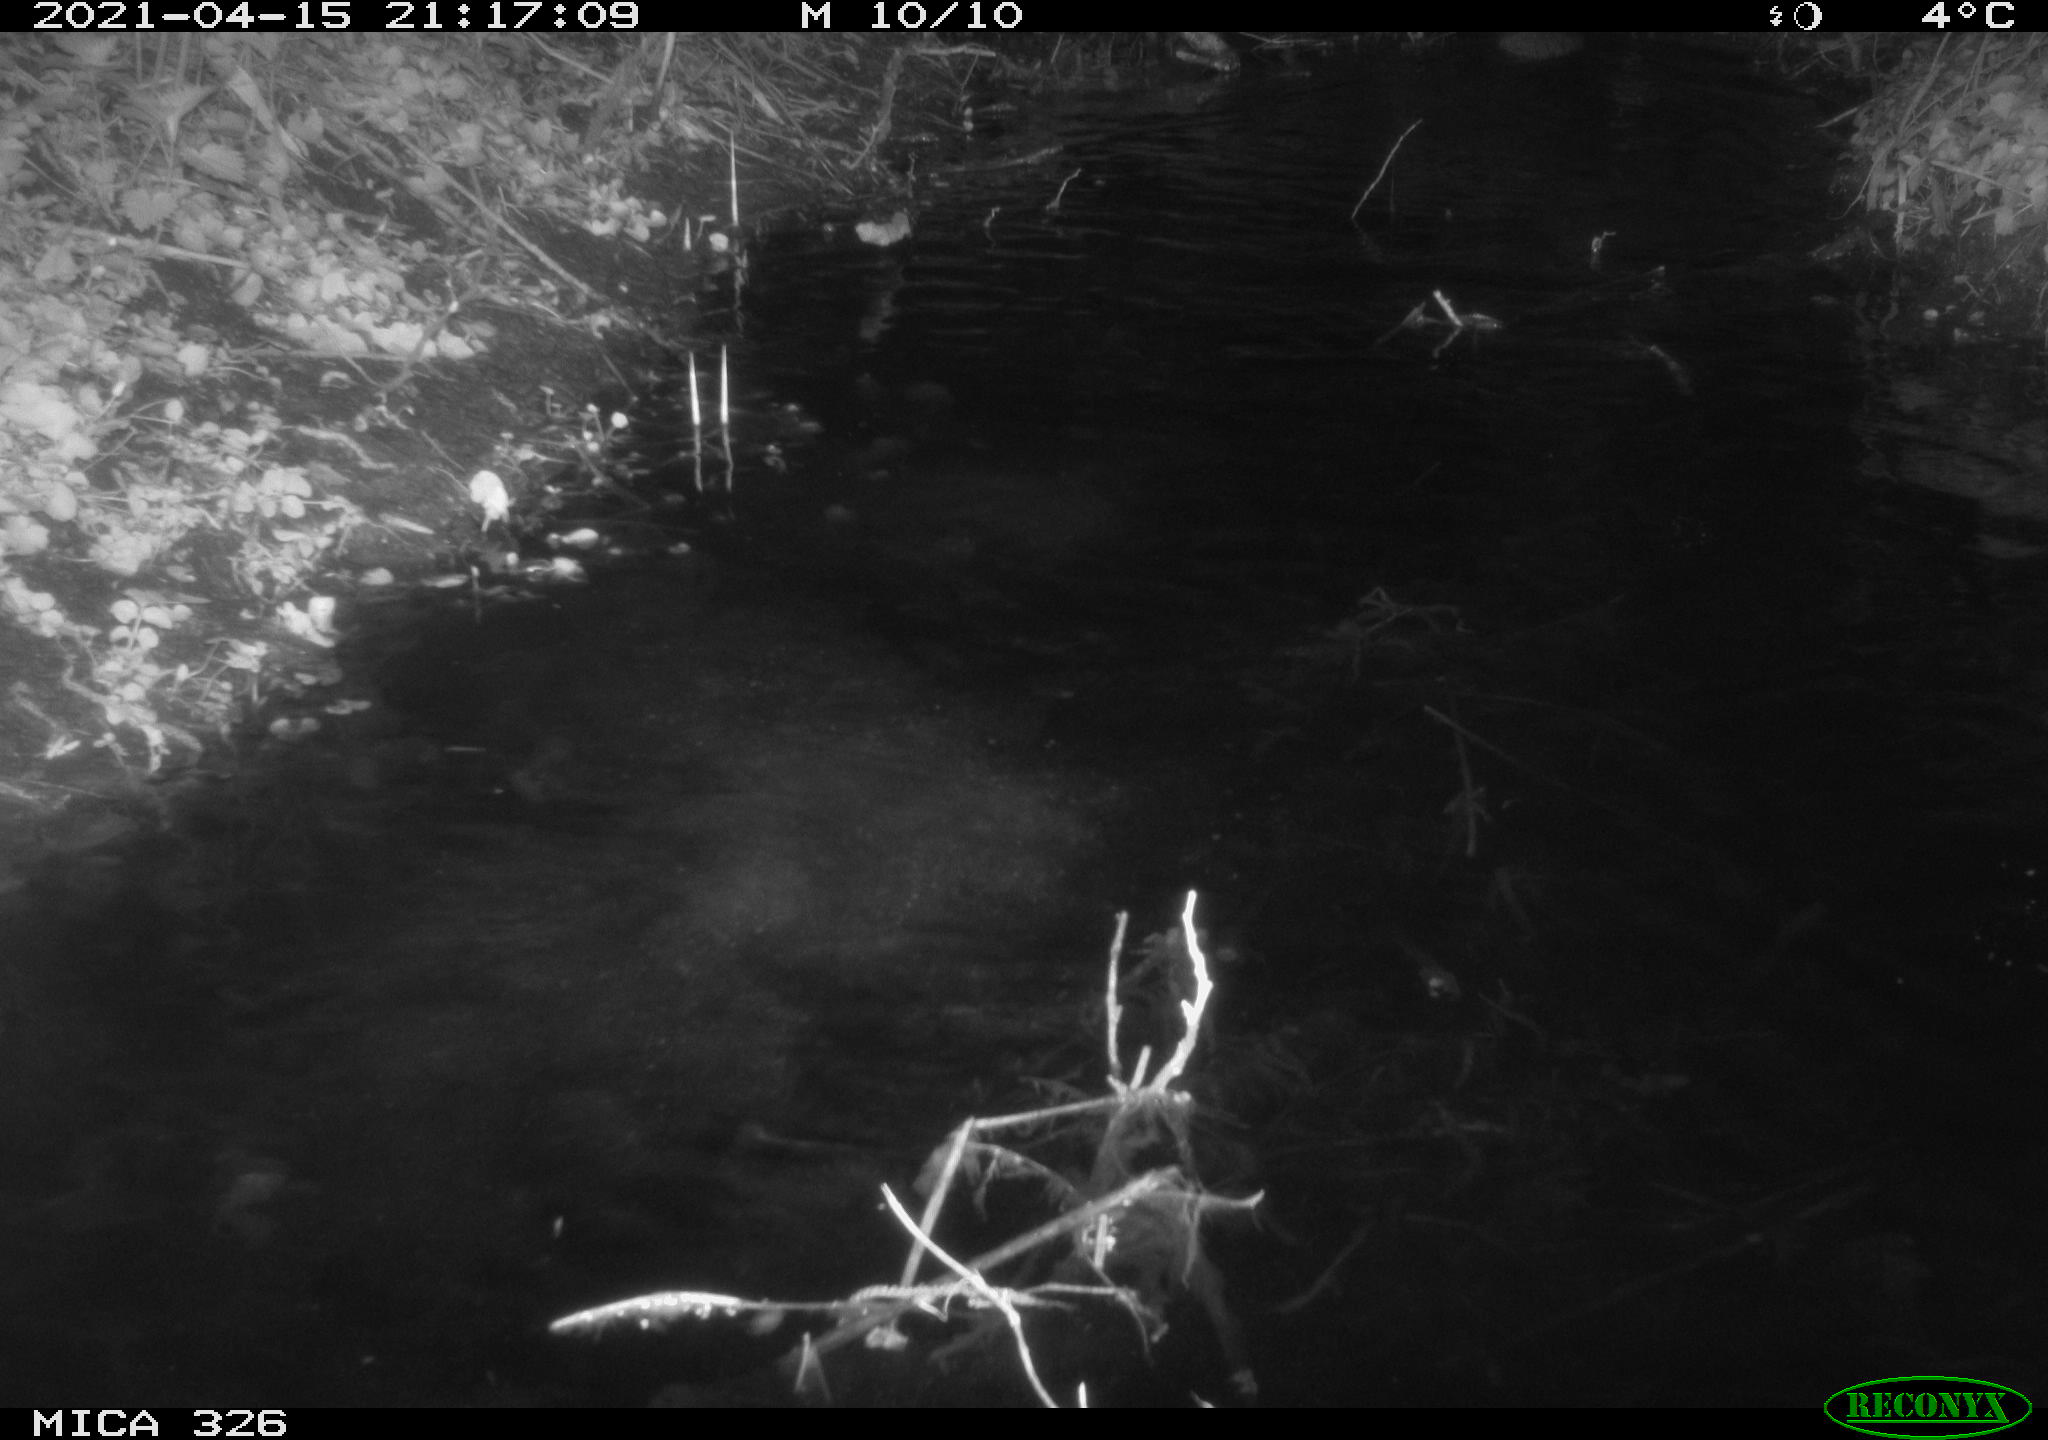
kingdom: Animalia
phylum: Chordata
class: Mammalia
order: Rodentia
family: Cricetidae
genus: Ondatra
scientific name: Ondatra zibethicus
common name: Muskrat
